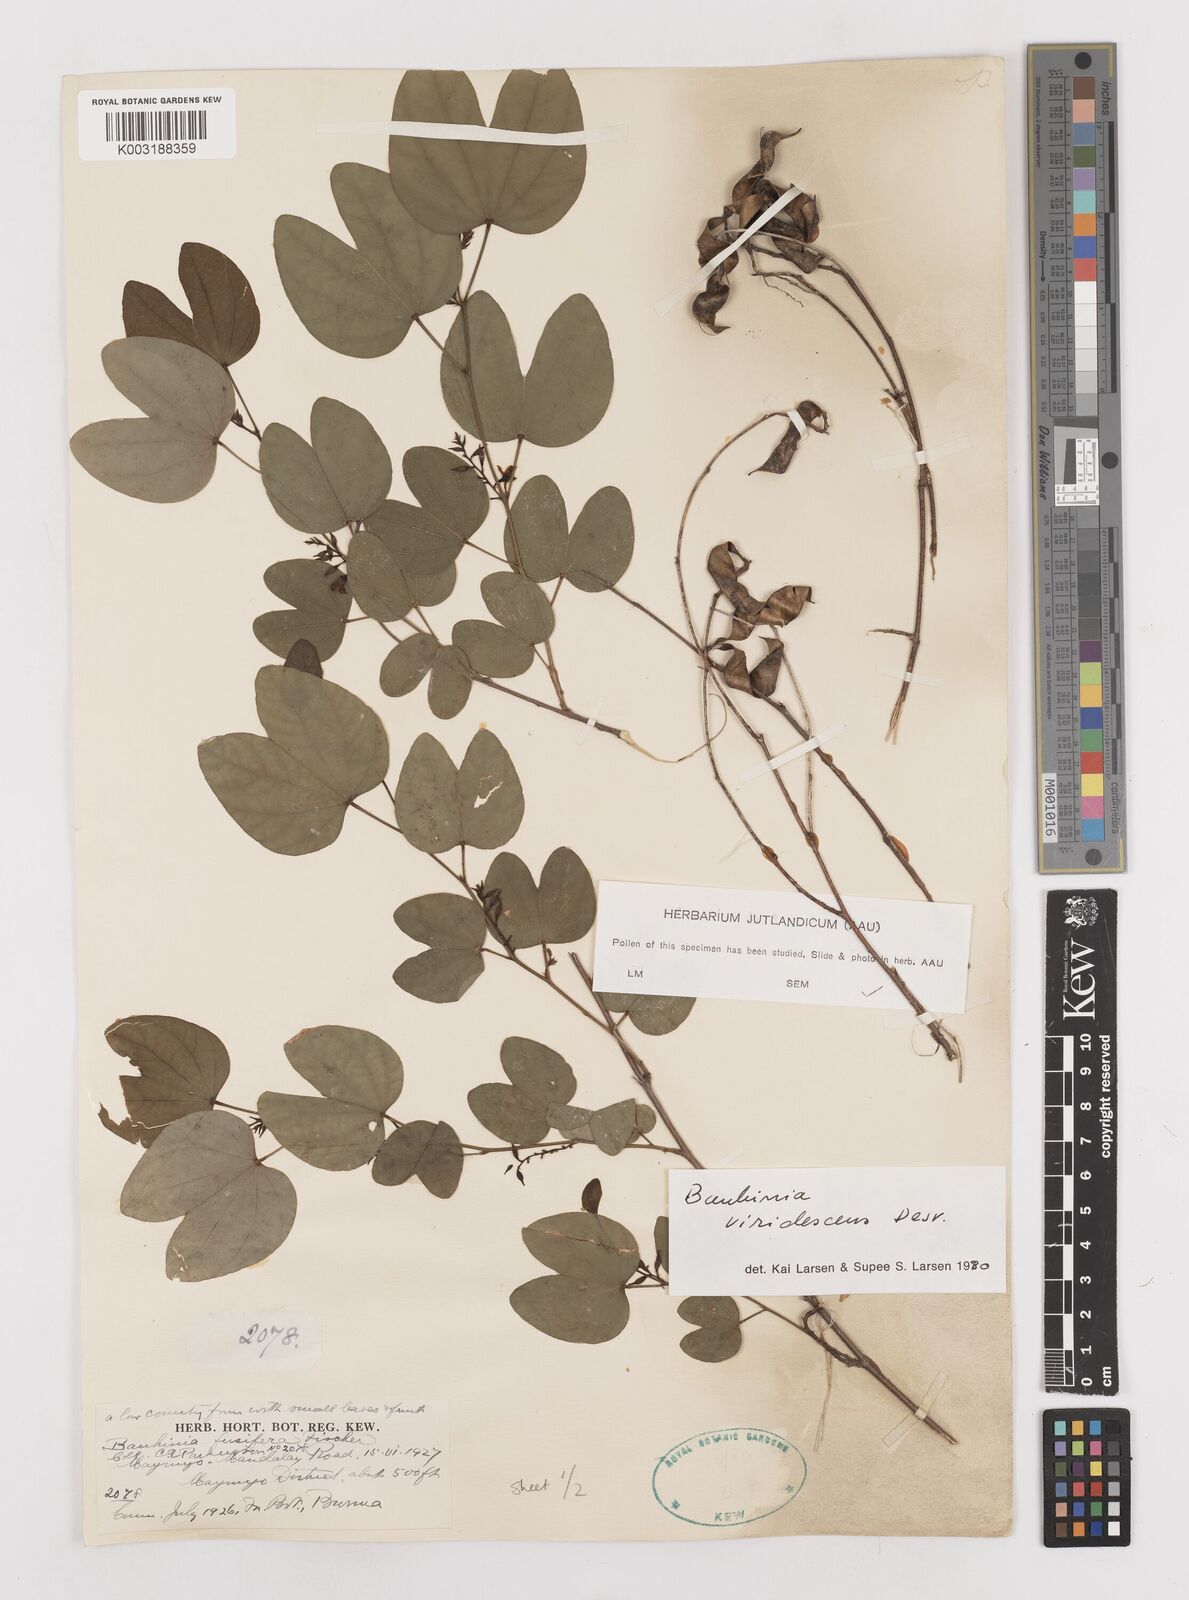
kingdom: Plantae
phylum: Tracheophyta
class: Magnoliopsida
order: Fabales
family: Fabaceae
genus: Bauhinia
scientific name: Bauhinia viridescens
